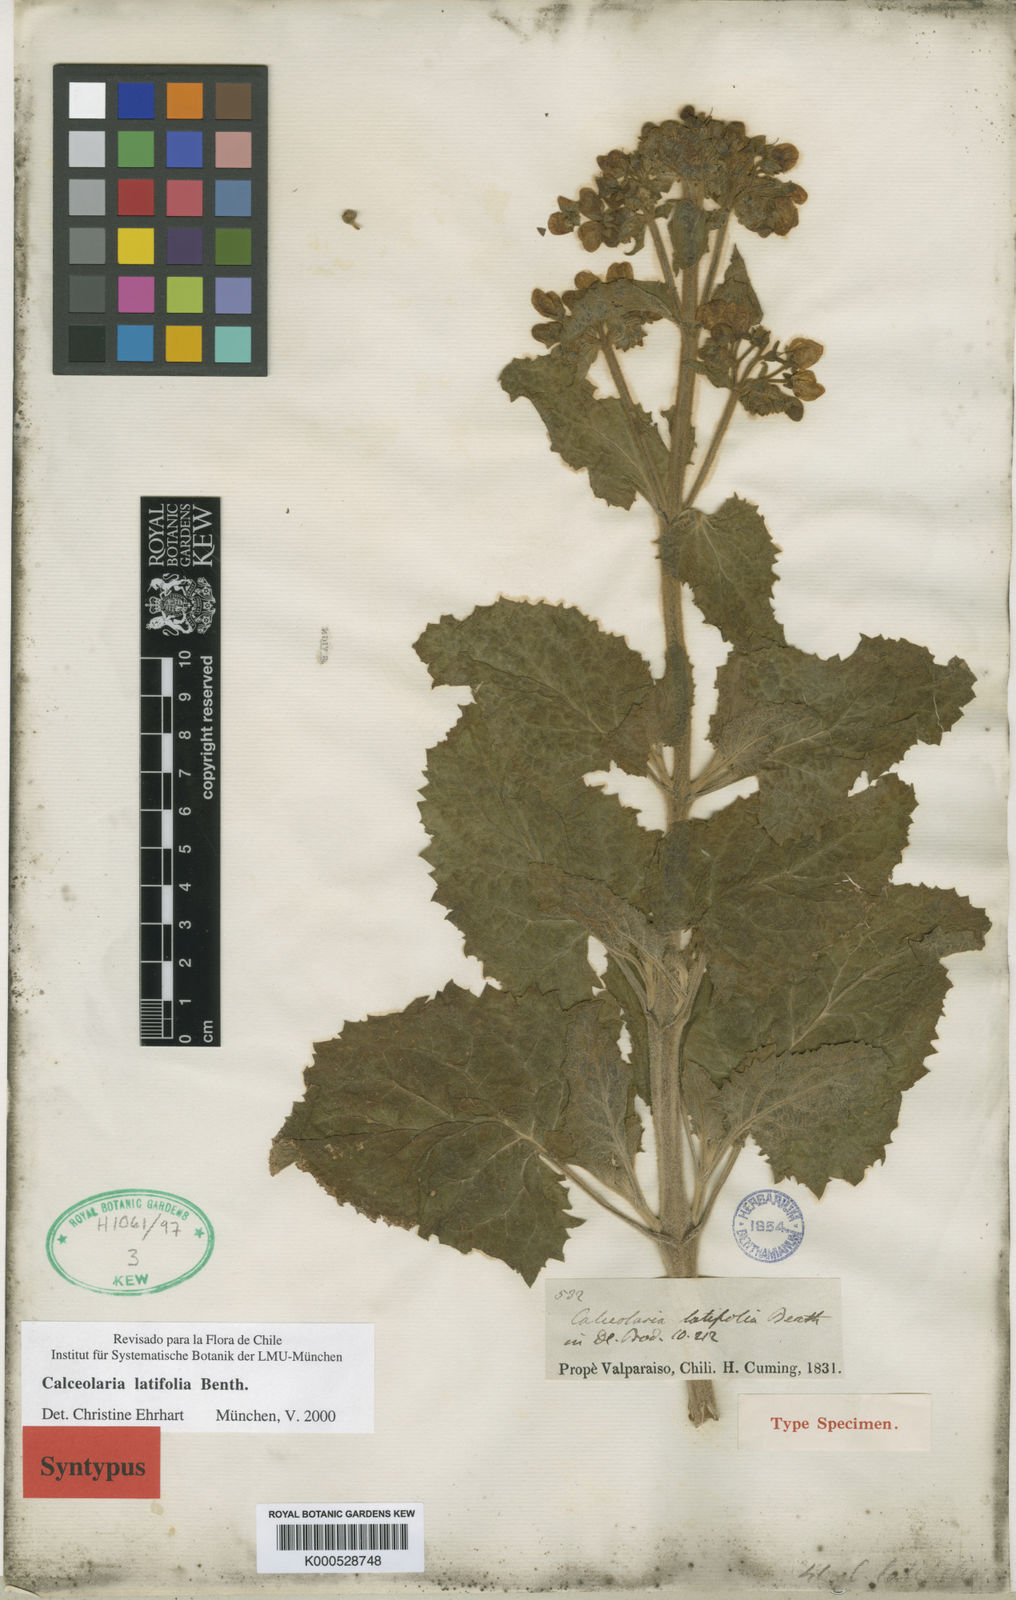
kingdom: Plantae
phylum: Tracheophyta
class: Magnoliopsida
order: Lamiales
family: Calceolariaceae
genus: Calceolaria
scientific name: Calceolaria latifolia
